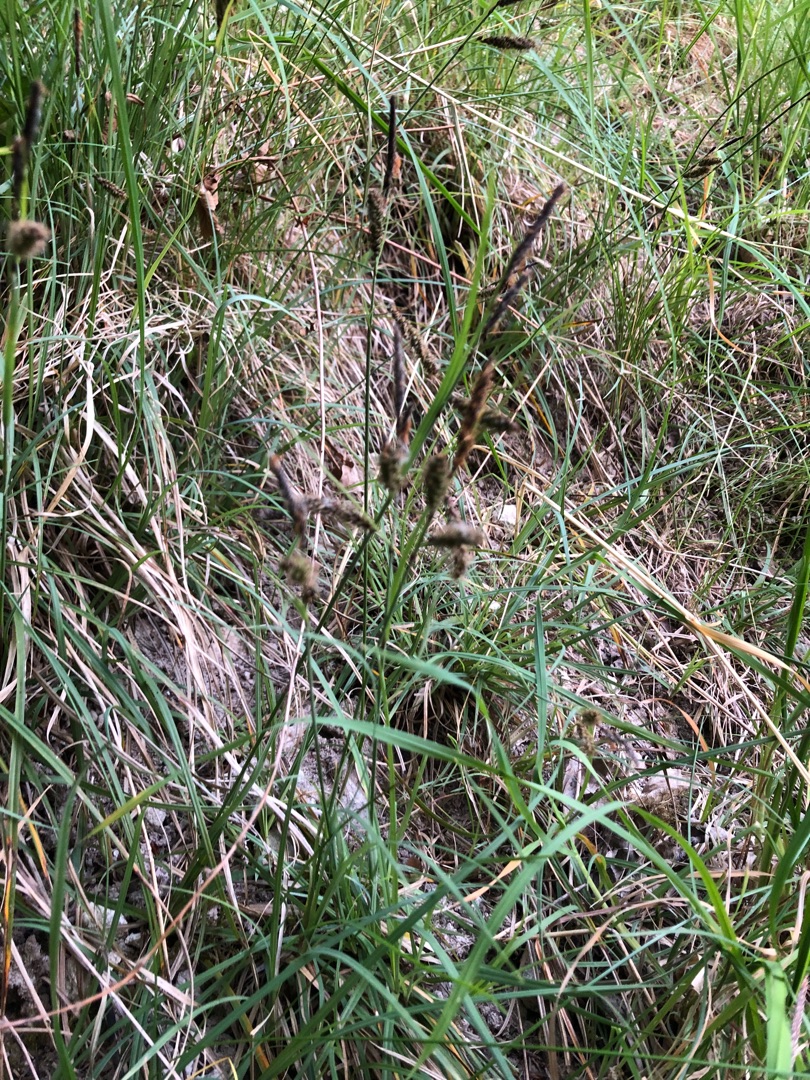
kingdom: Plantae
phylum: Tracheophyta
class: Liliopsida
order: Poales
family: Cyperaceae
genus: Carex
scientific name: Carex flacca
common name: Blågrøn star
